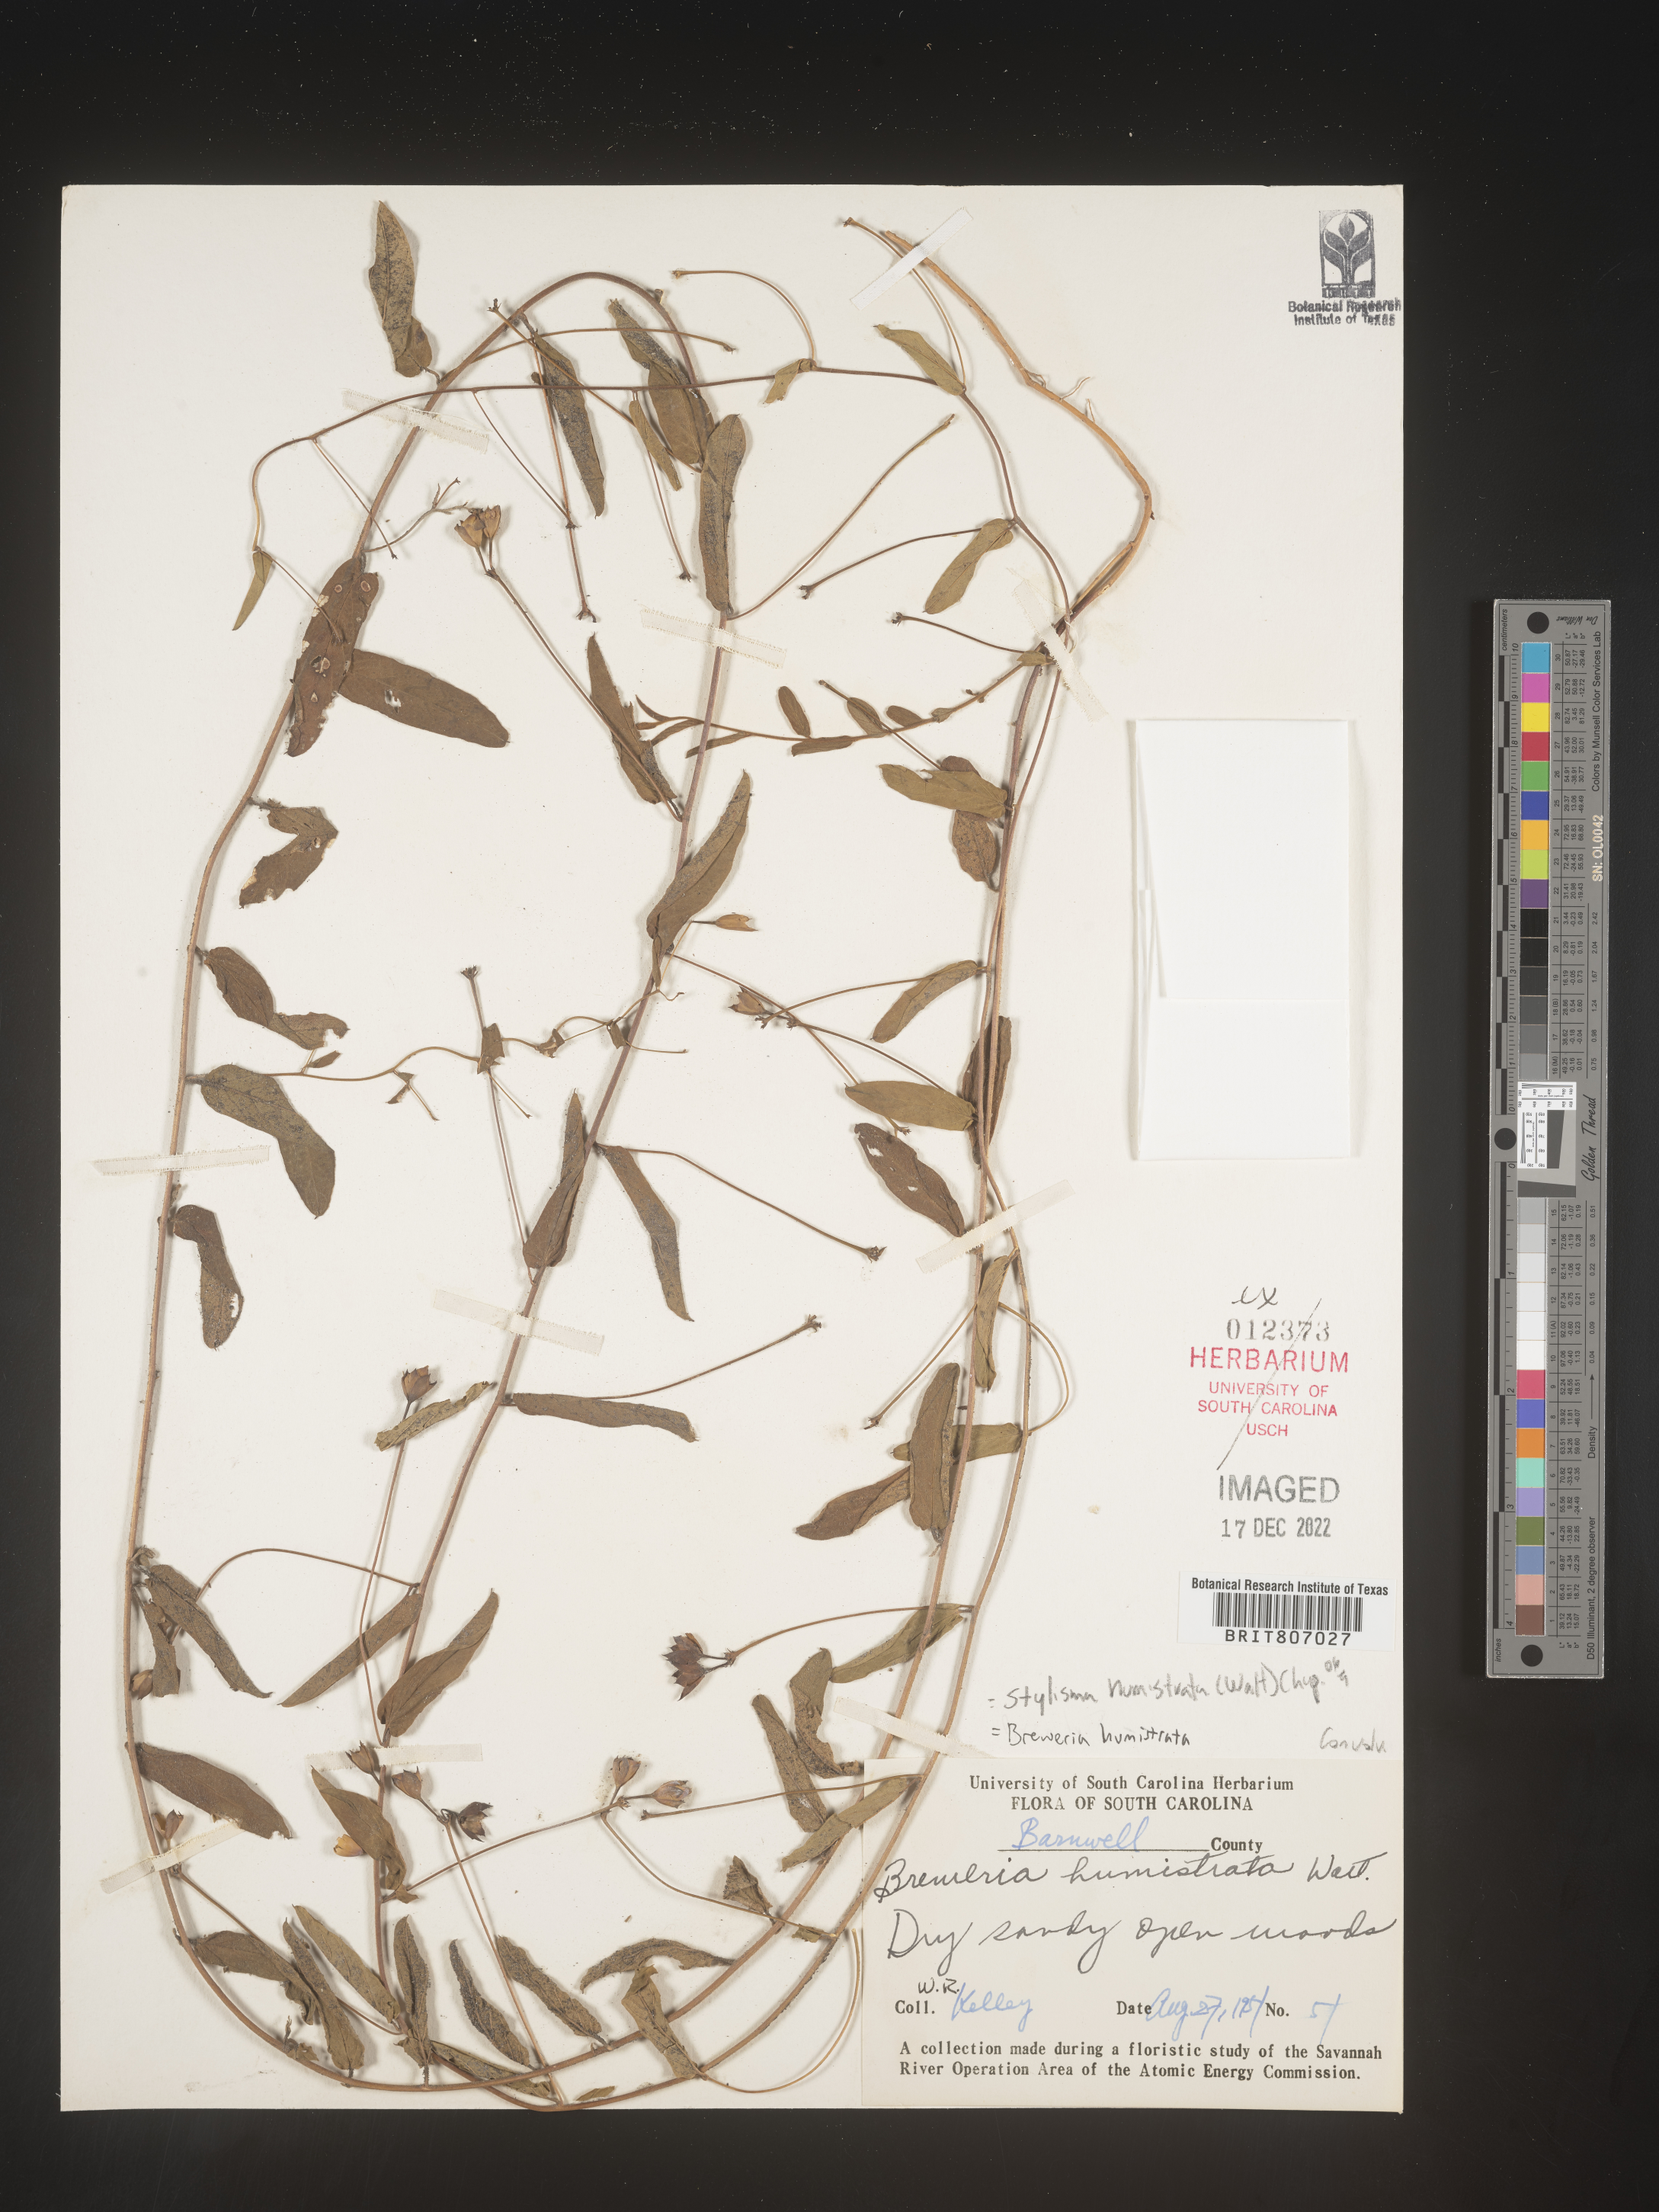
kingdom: Plantae
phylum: Tracheophyta
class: Magnoliopsida
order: Solanales
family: Convolvulaceae
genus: Stylisma
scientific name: Stylisma humistrata
